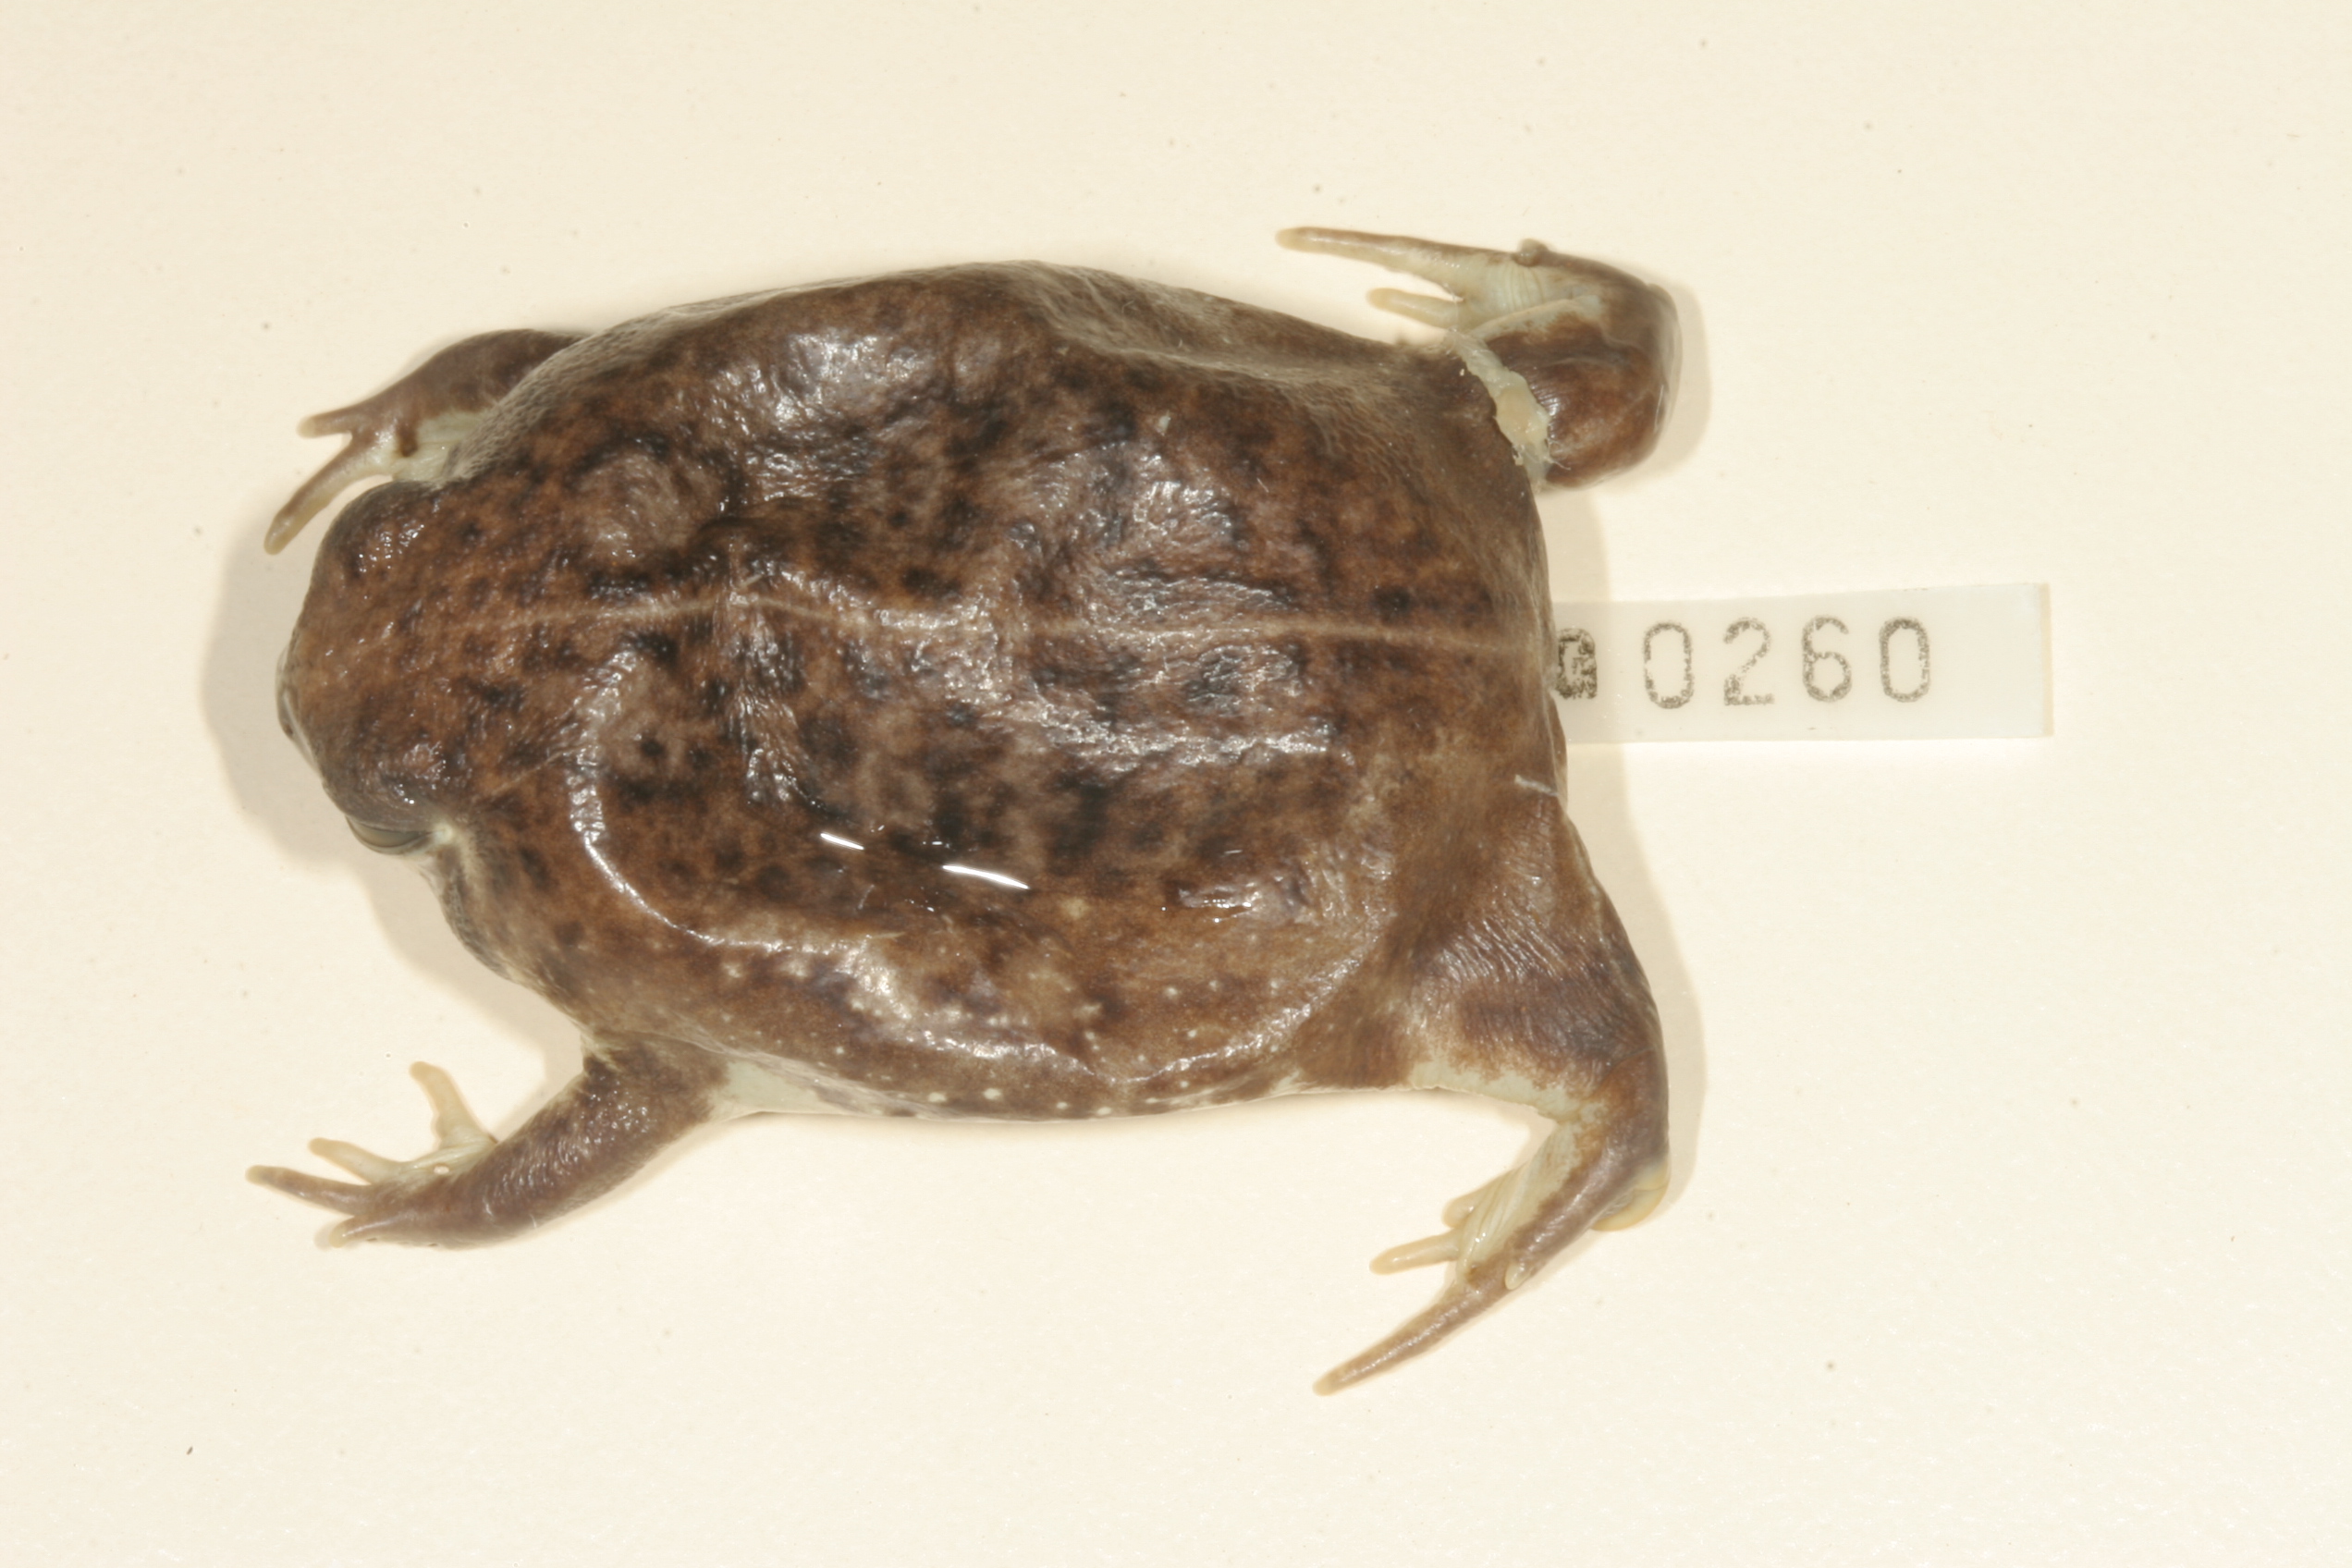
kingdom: Animalia
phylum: Chordata
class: Amphibia
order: Anura
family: Brevicipitidae
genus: Breviceps
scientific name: Breviceps adspersus
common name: Common rain frog
